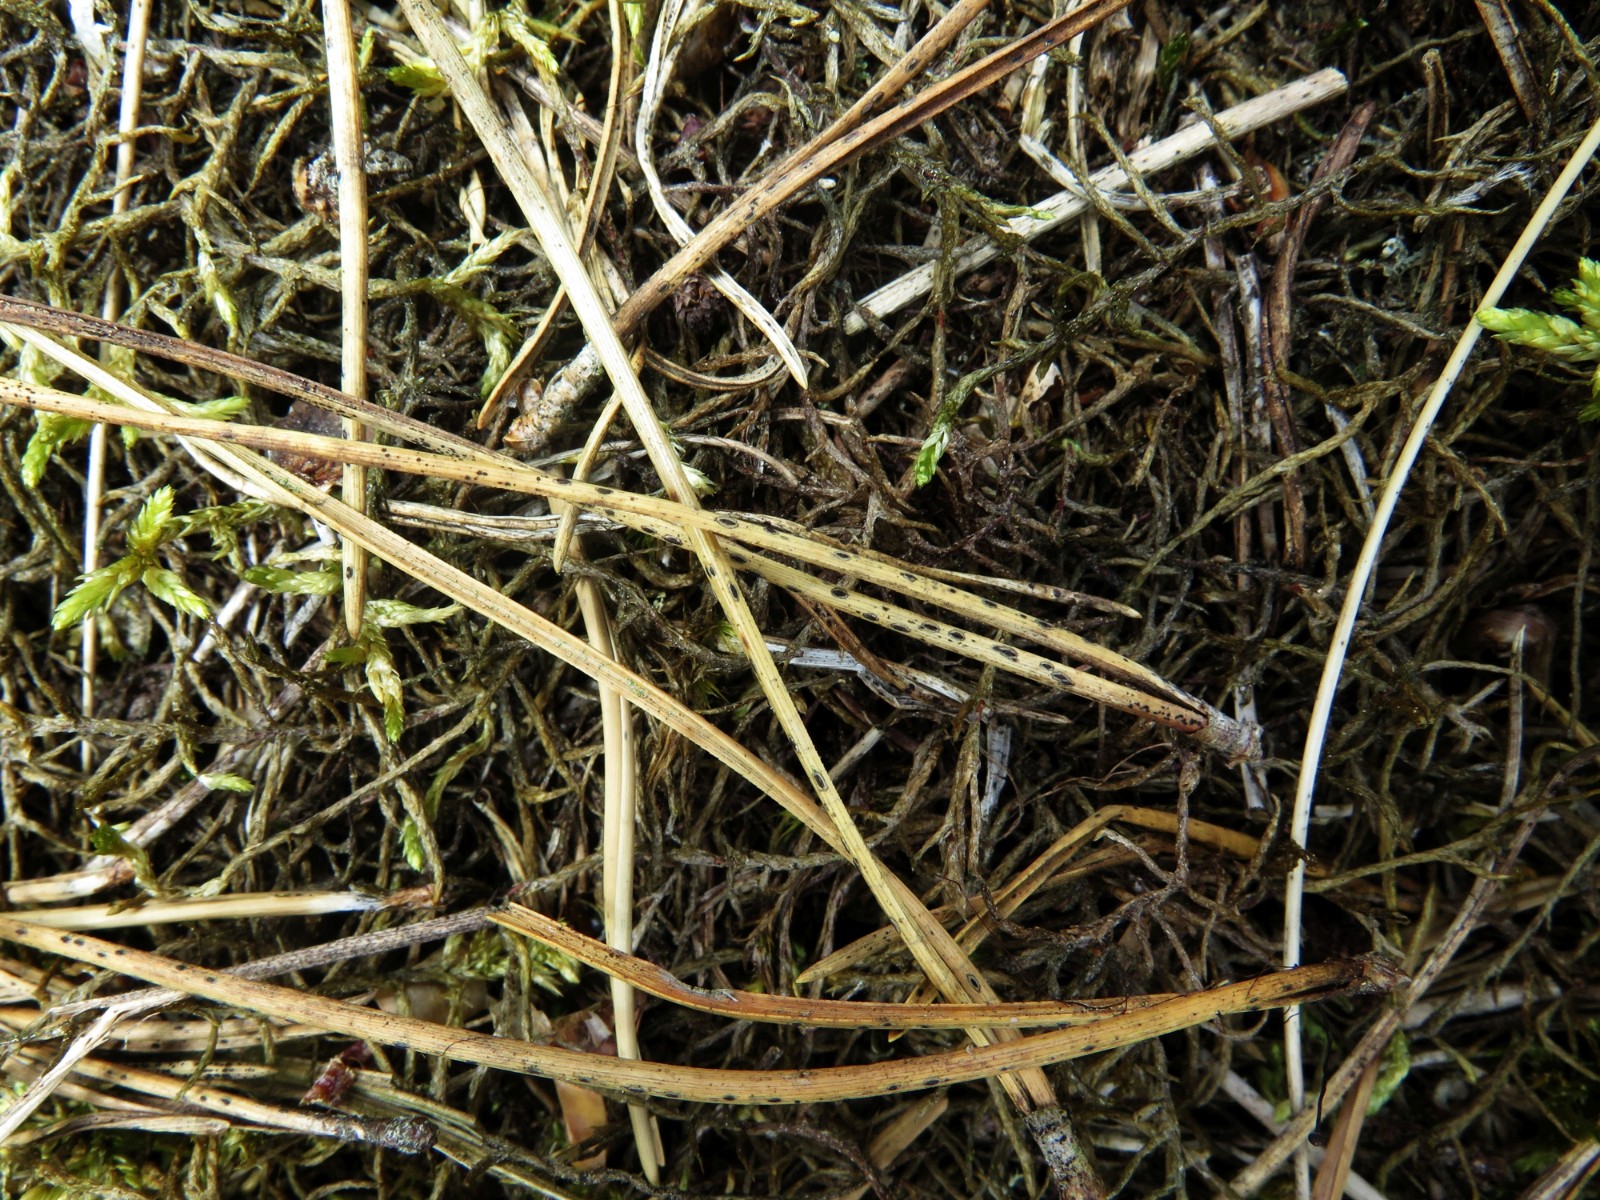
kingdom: Fungi
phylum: Ascomycota
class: Leotiomycetes
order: Rhytismatales
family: Rhytismataceae
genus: Lophodermium
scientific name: Lophodermium
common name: fureplet
